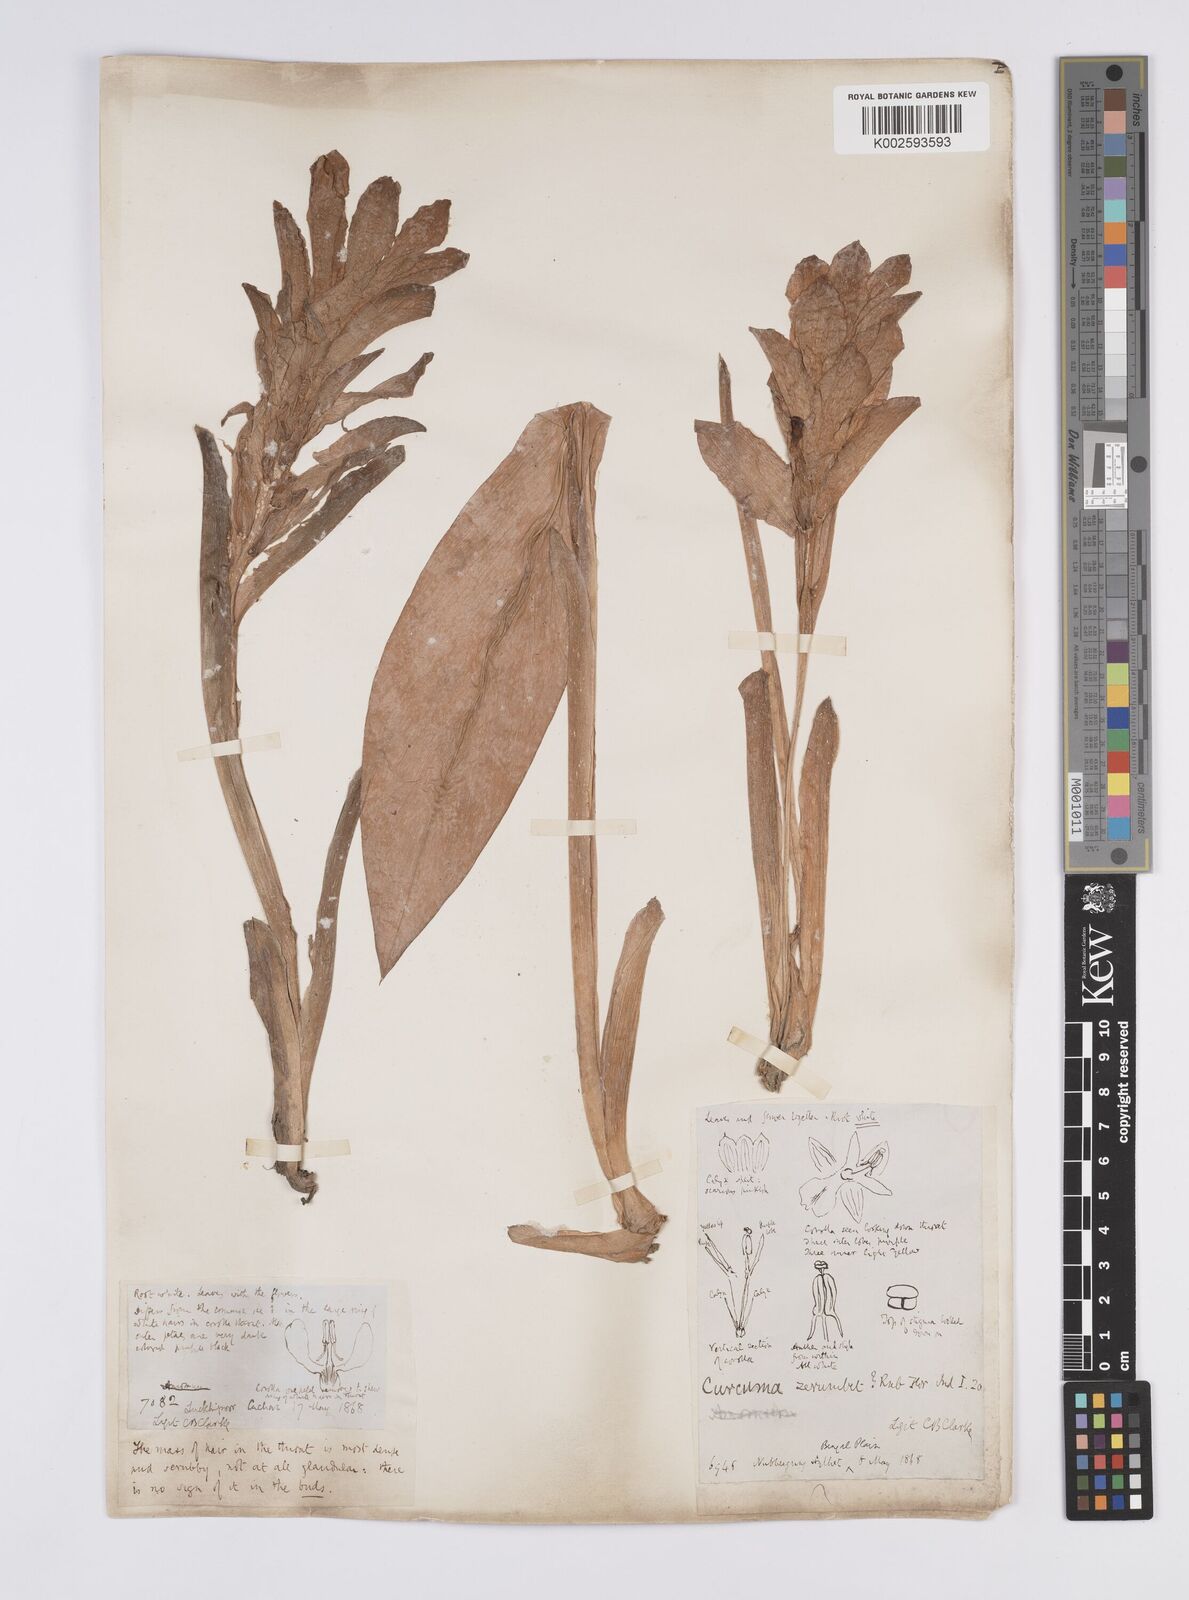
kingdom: Plantae
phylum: Tracheophyta
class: Liliopsida
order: Zingiberales
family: Zingiberaceae
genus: Curcuma
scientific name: Curcuma aromatica
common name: Wild turmeric
